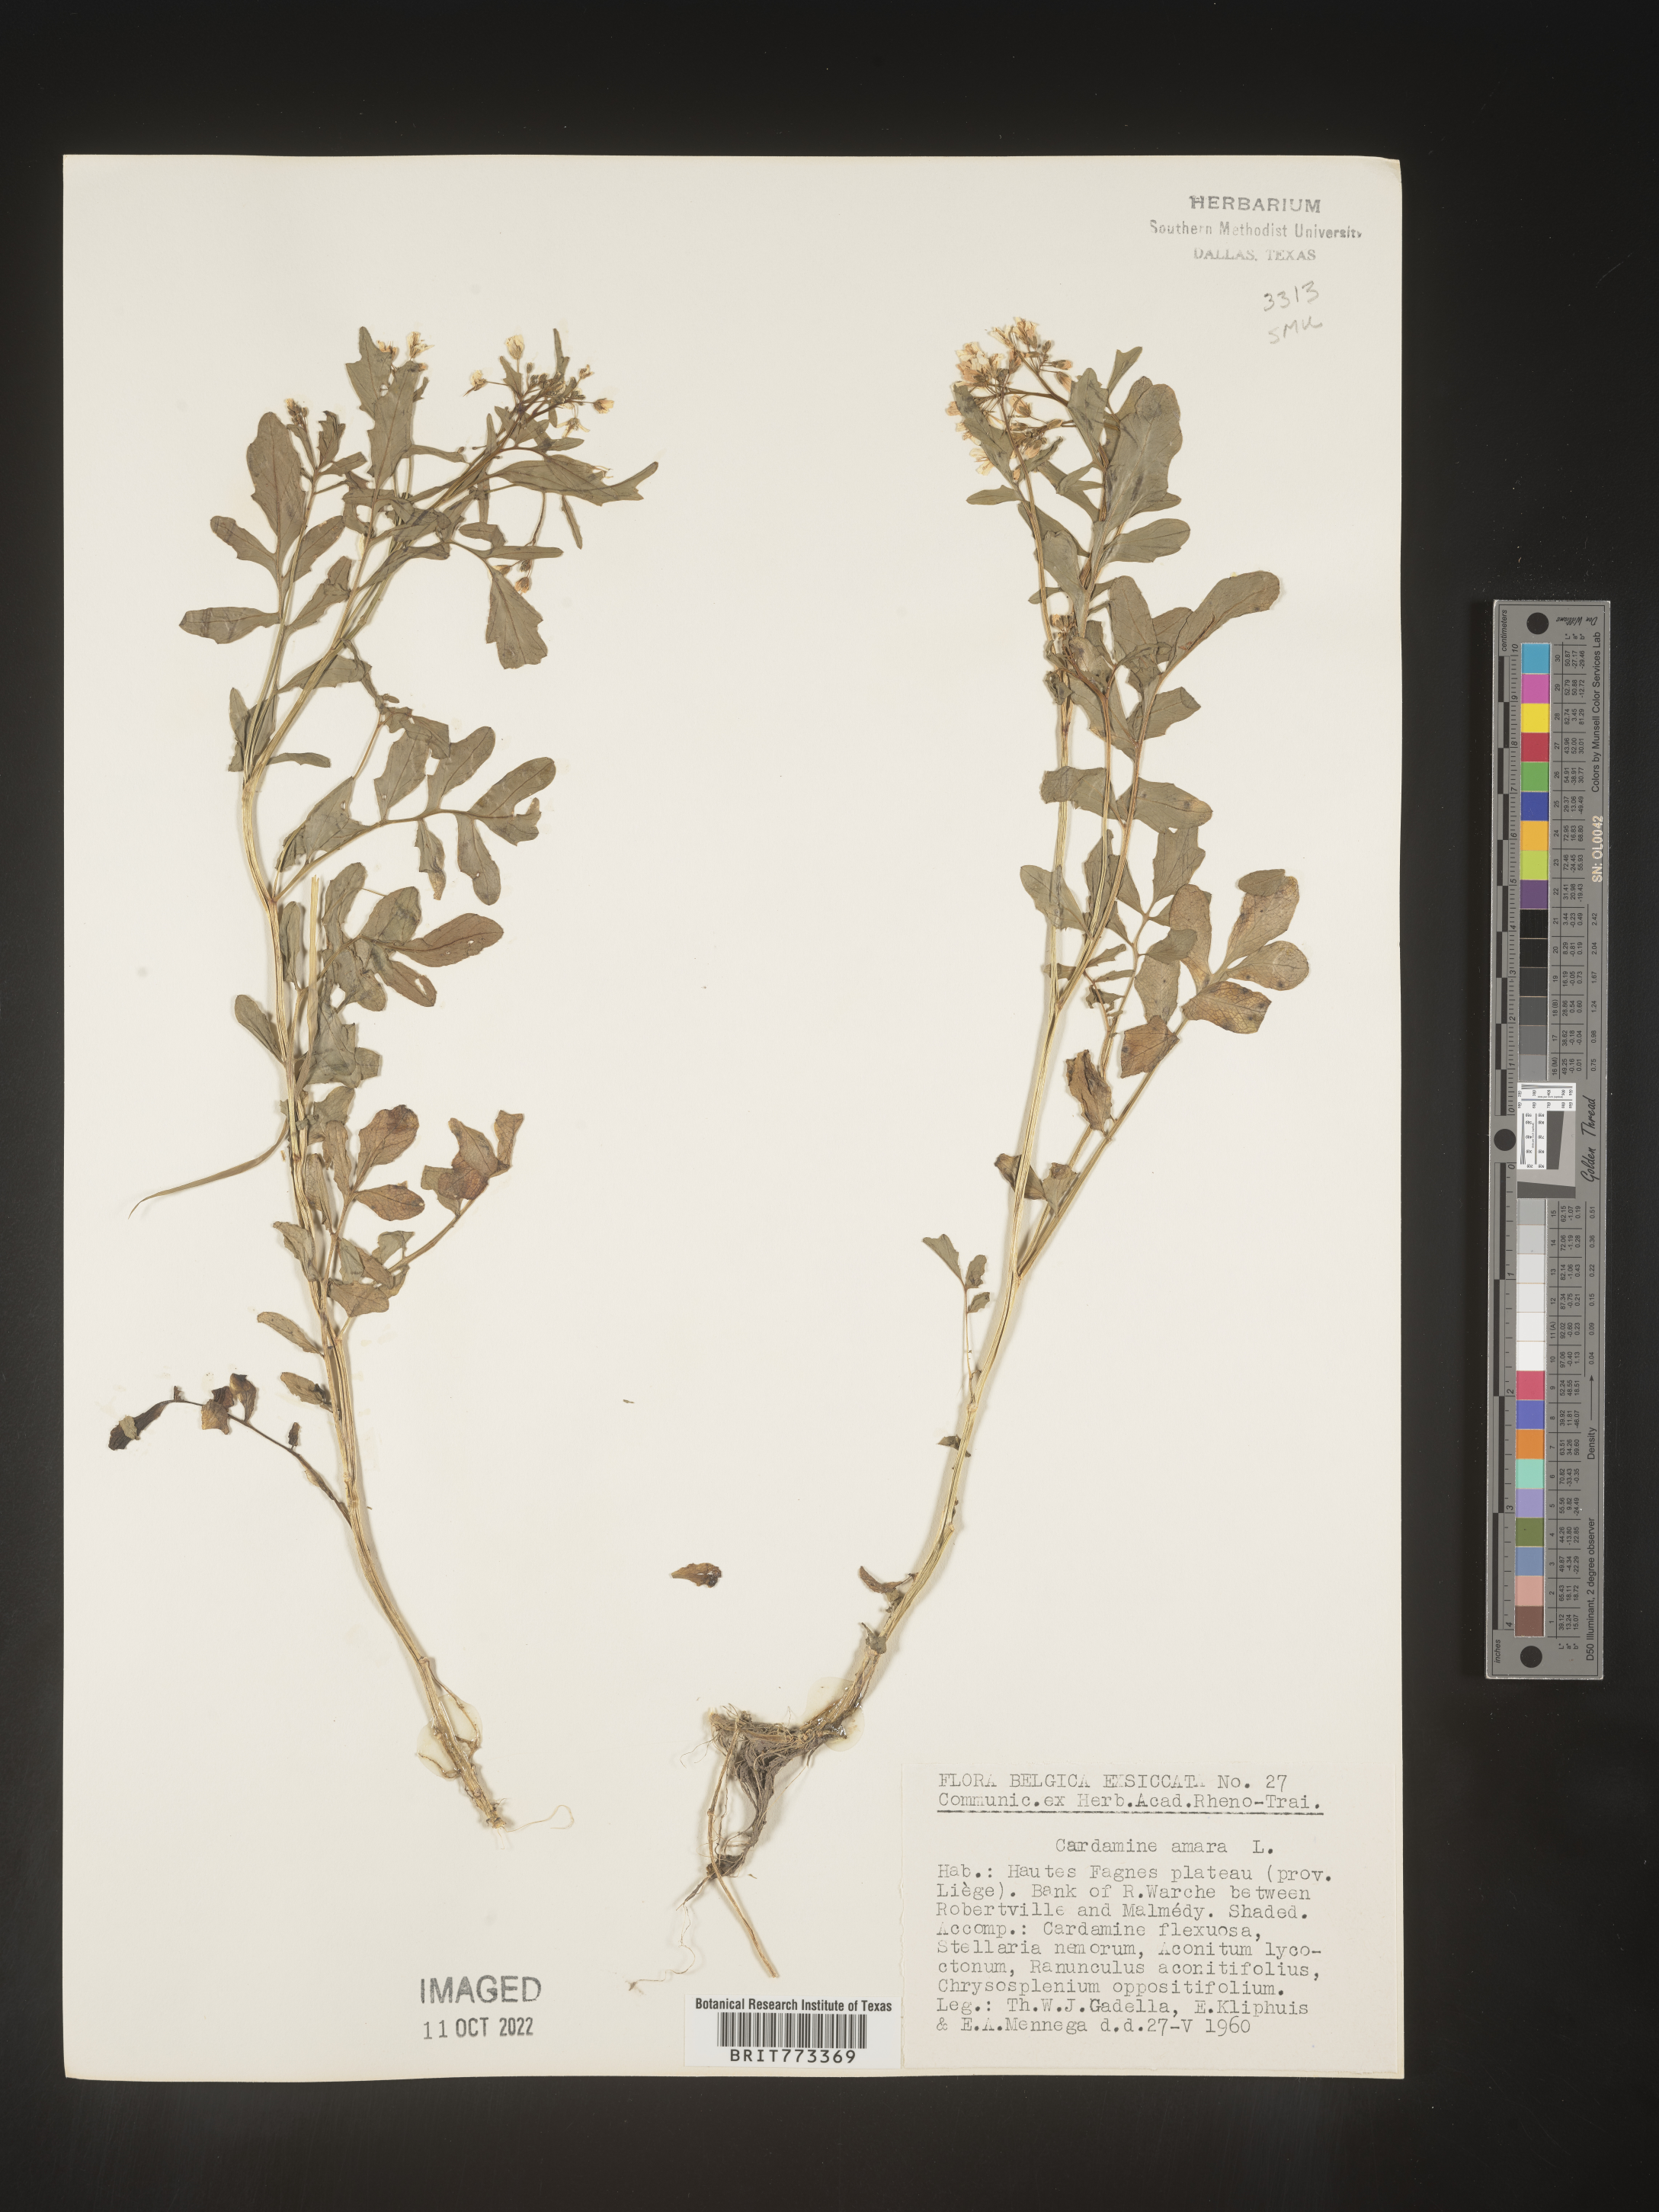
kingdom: Plantae
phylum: Tracheophyta
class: Magnoliopsida
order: Brassicales
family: Brassicaceae
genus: Cardamine
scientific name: Cardamine
